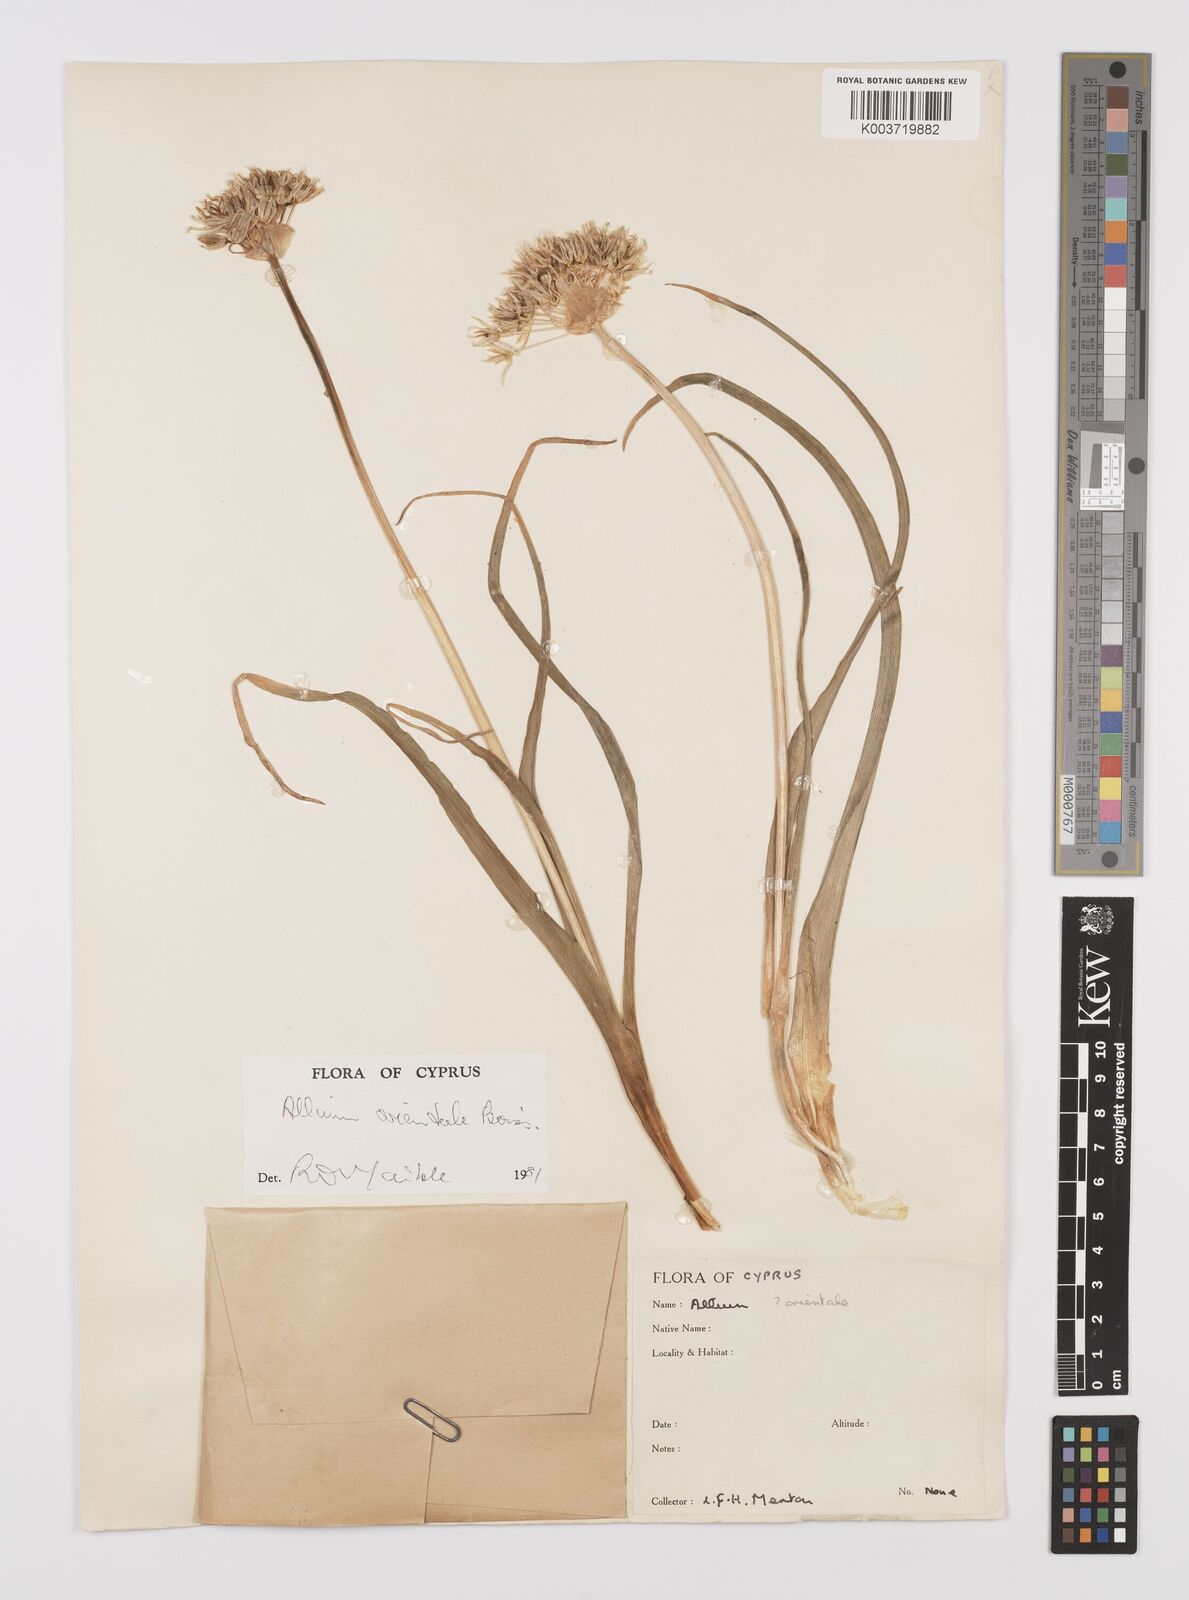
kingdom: Plantae
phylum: Tracheophyta
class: Liliopsida
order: Asparagales
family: Amaryllidaceae
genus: Allium
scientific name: Allium orientale
